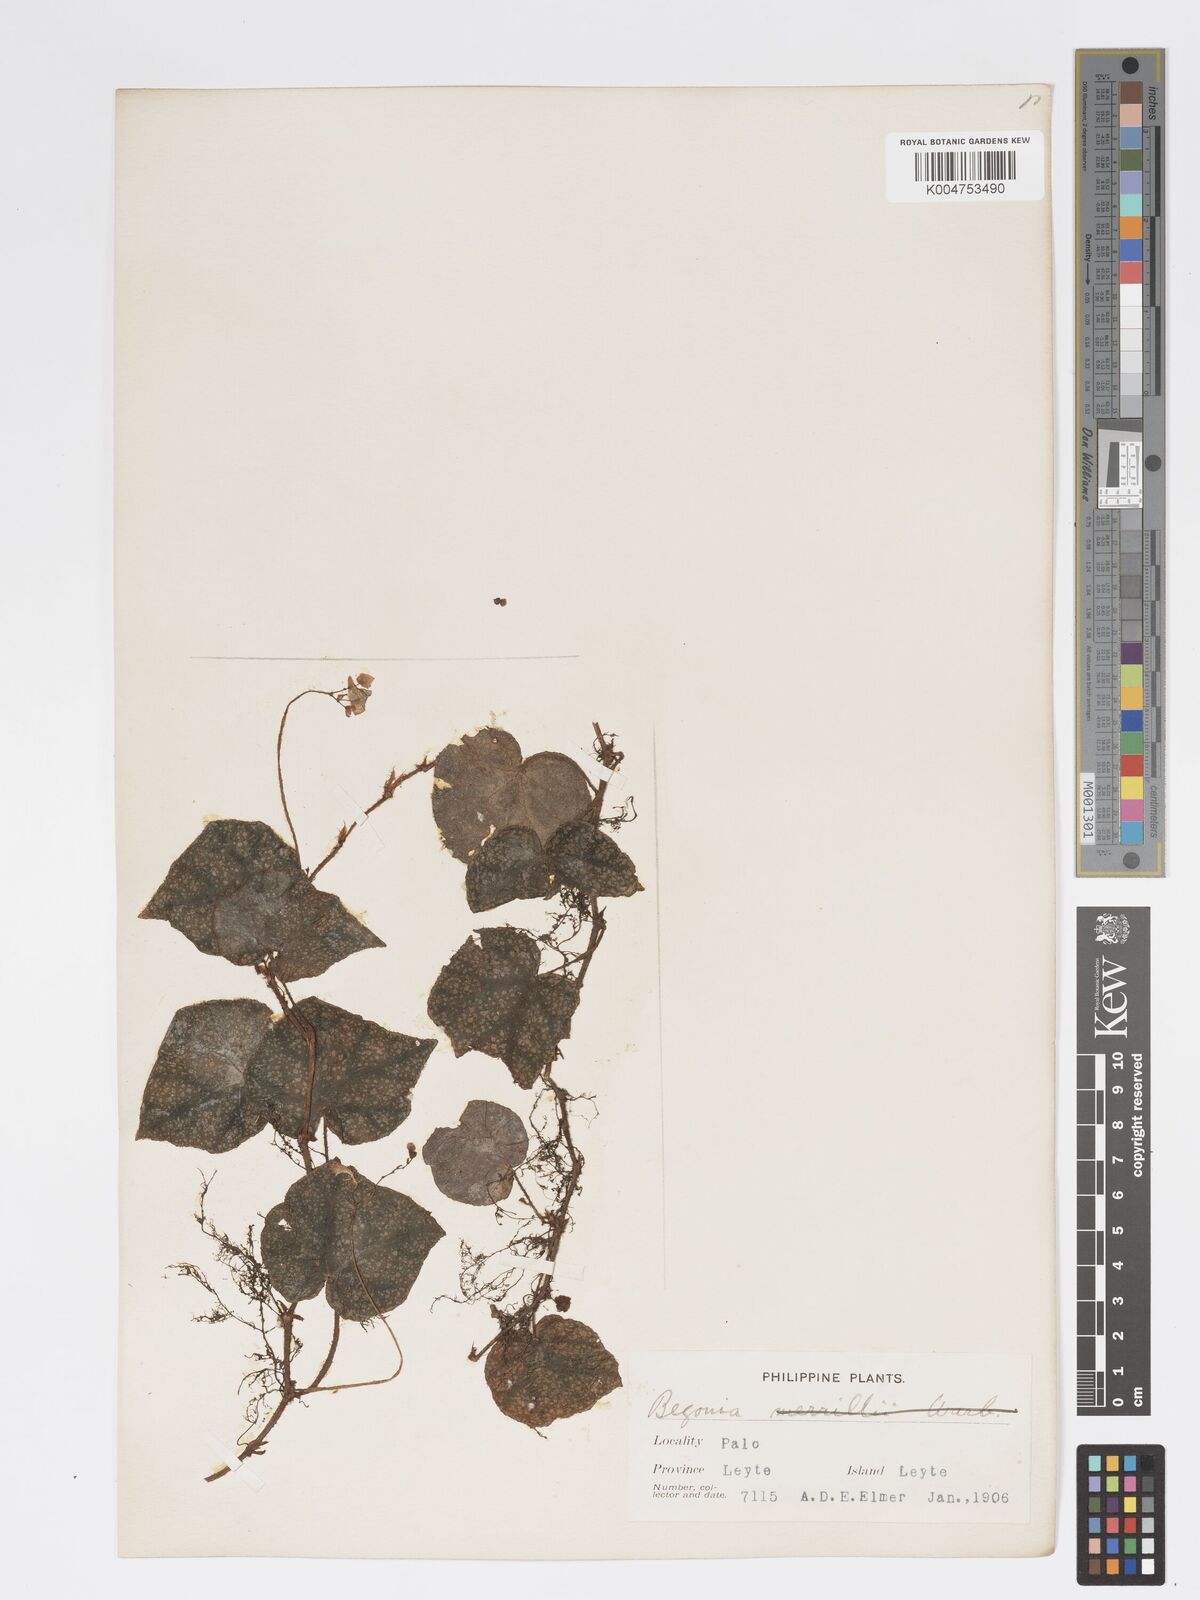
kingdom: Plantae
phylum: Tracheophyta
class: Magnoliopsida
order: Cucurbitales
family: Begoniaceae
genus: Begonia
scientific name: Begonia
